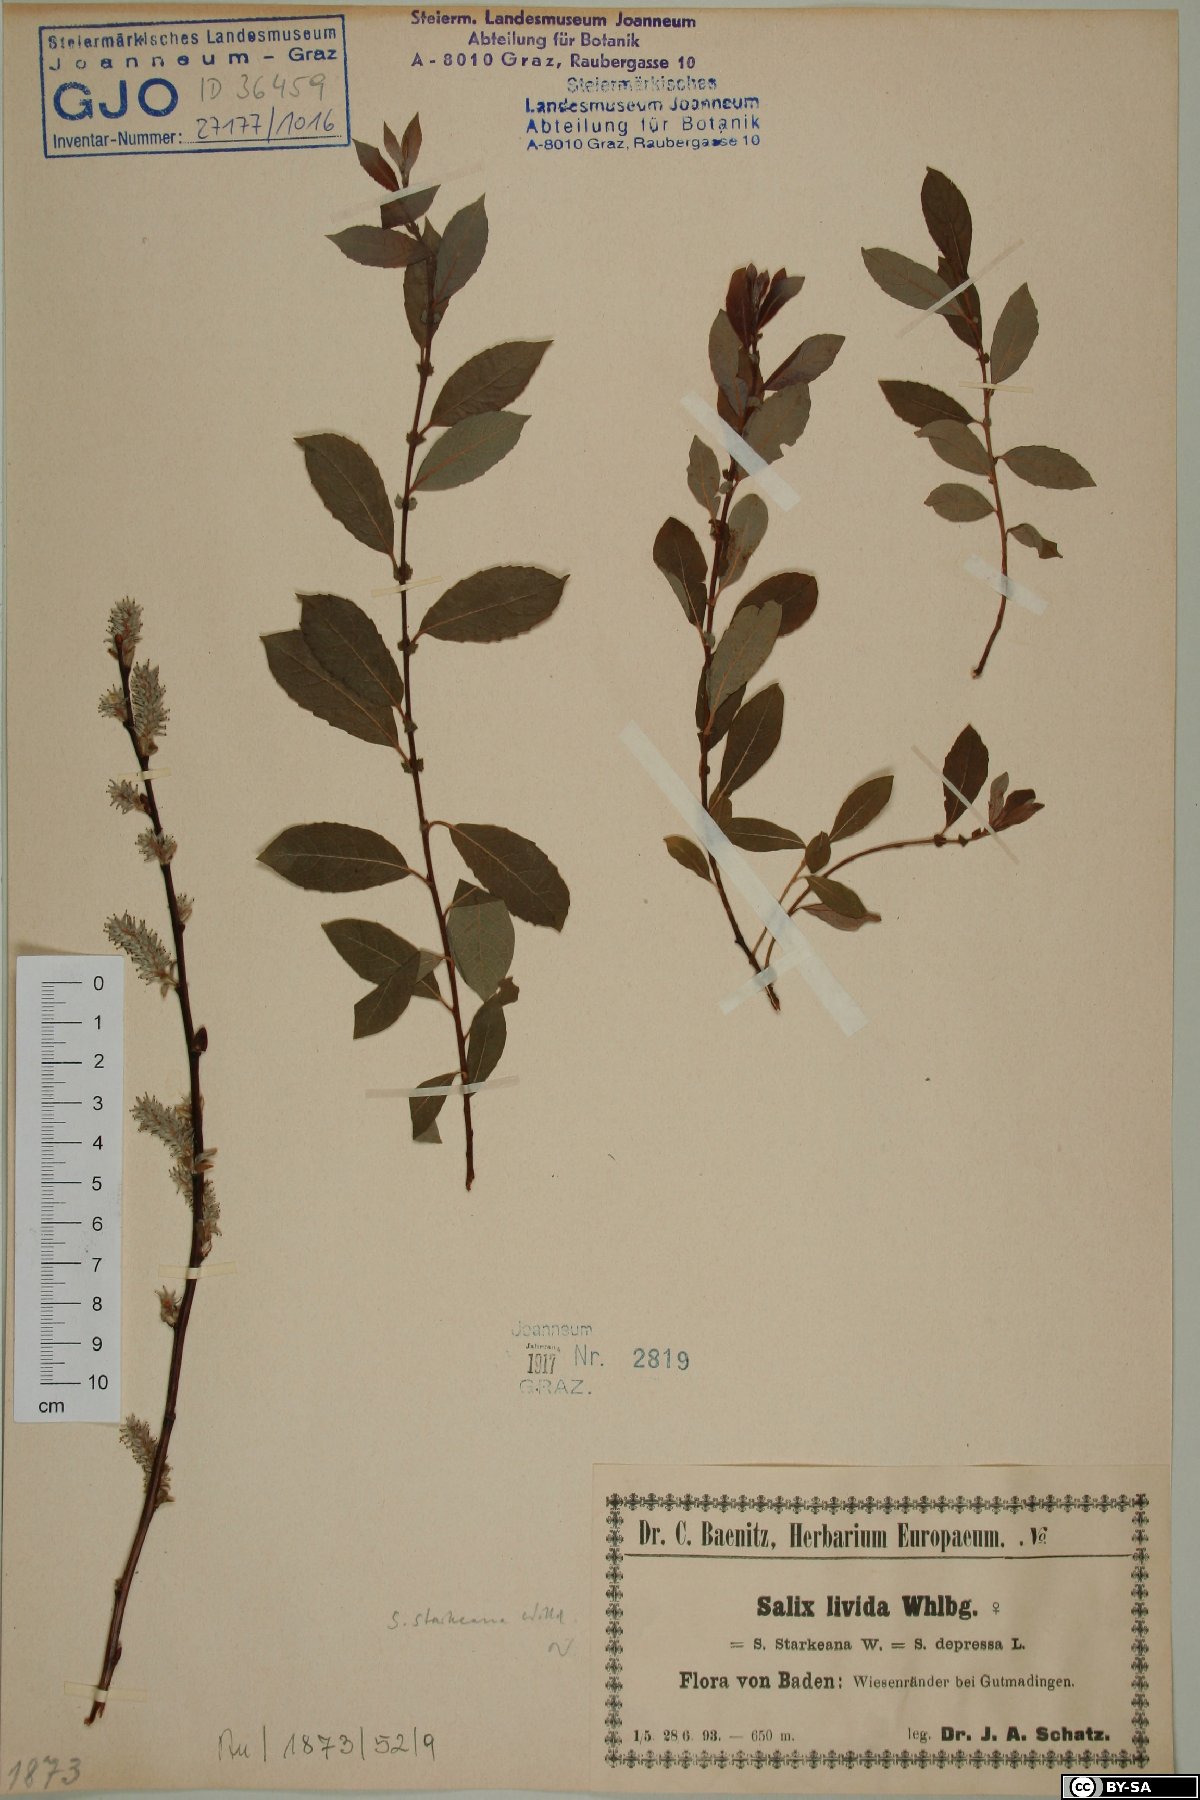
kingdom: Plantae
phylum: Tracheophyta
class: Magnoliopsida
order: Malpighiales
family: Salicaceae
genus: Salix
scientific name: Salix starkeana
